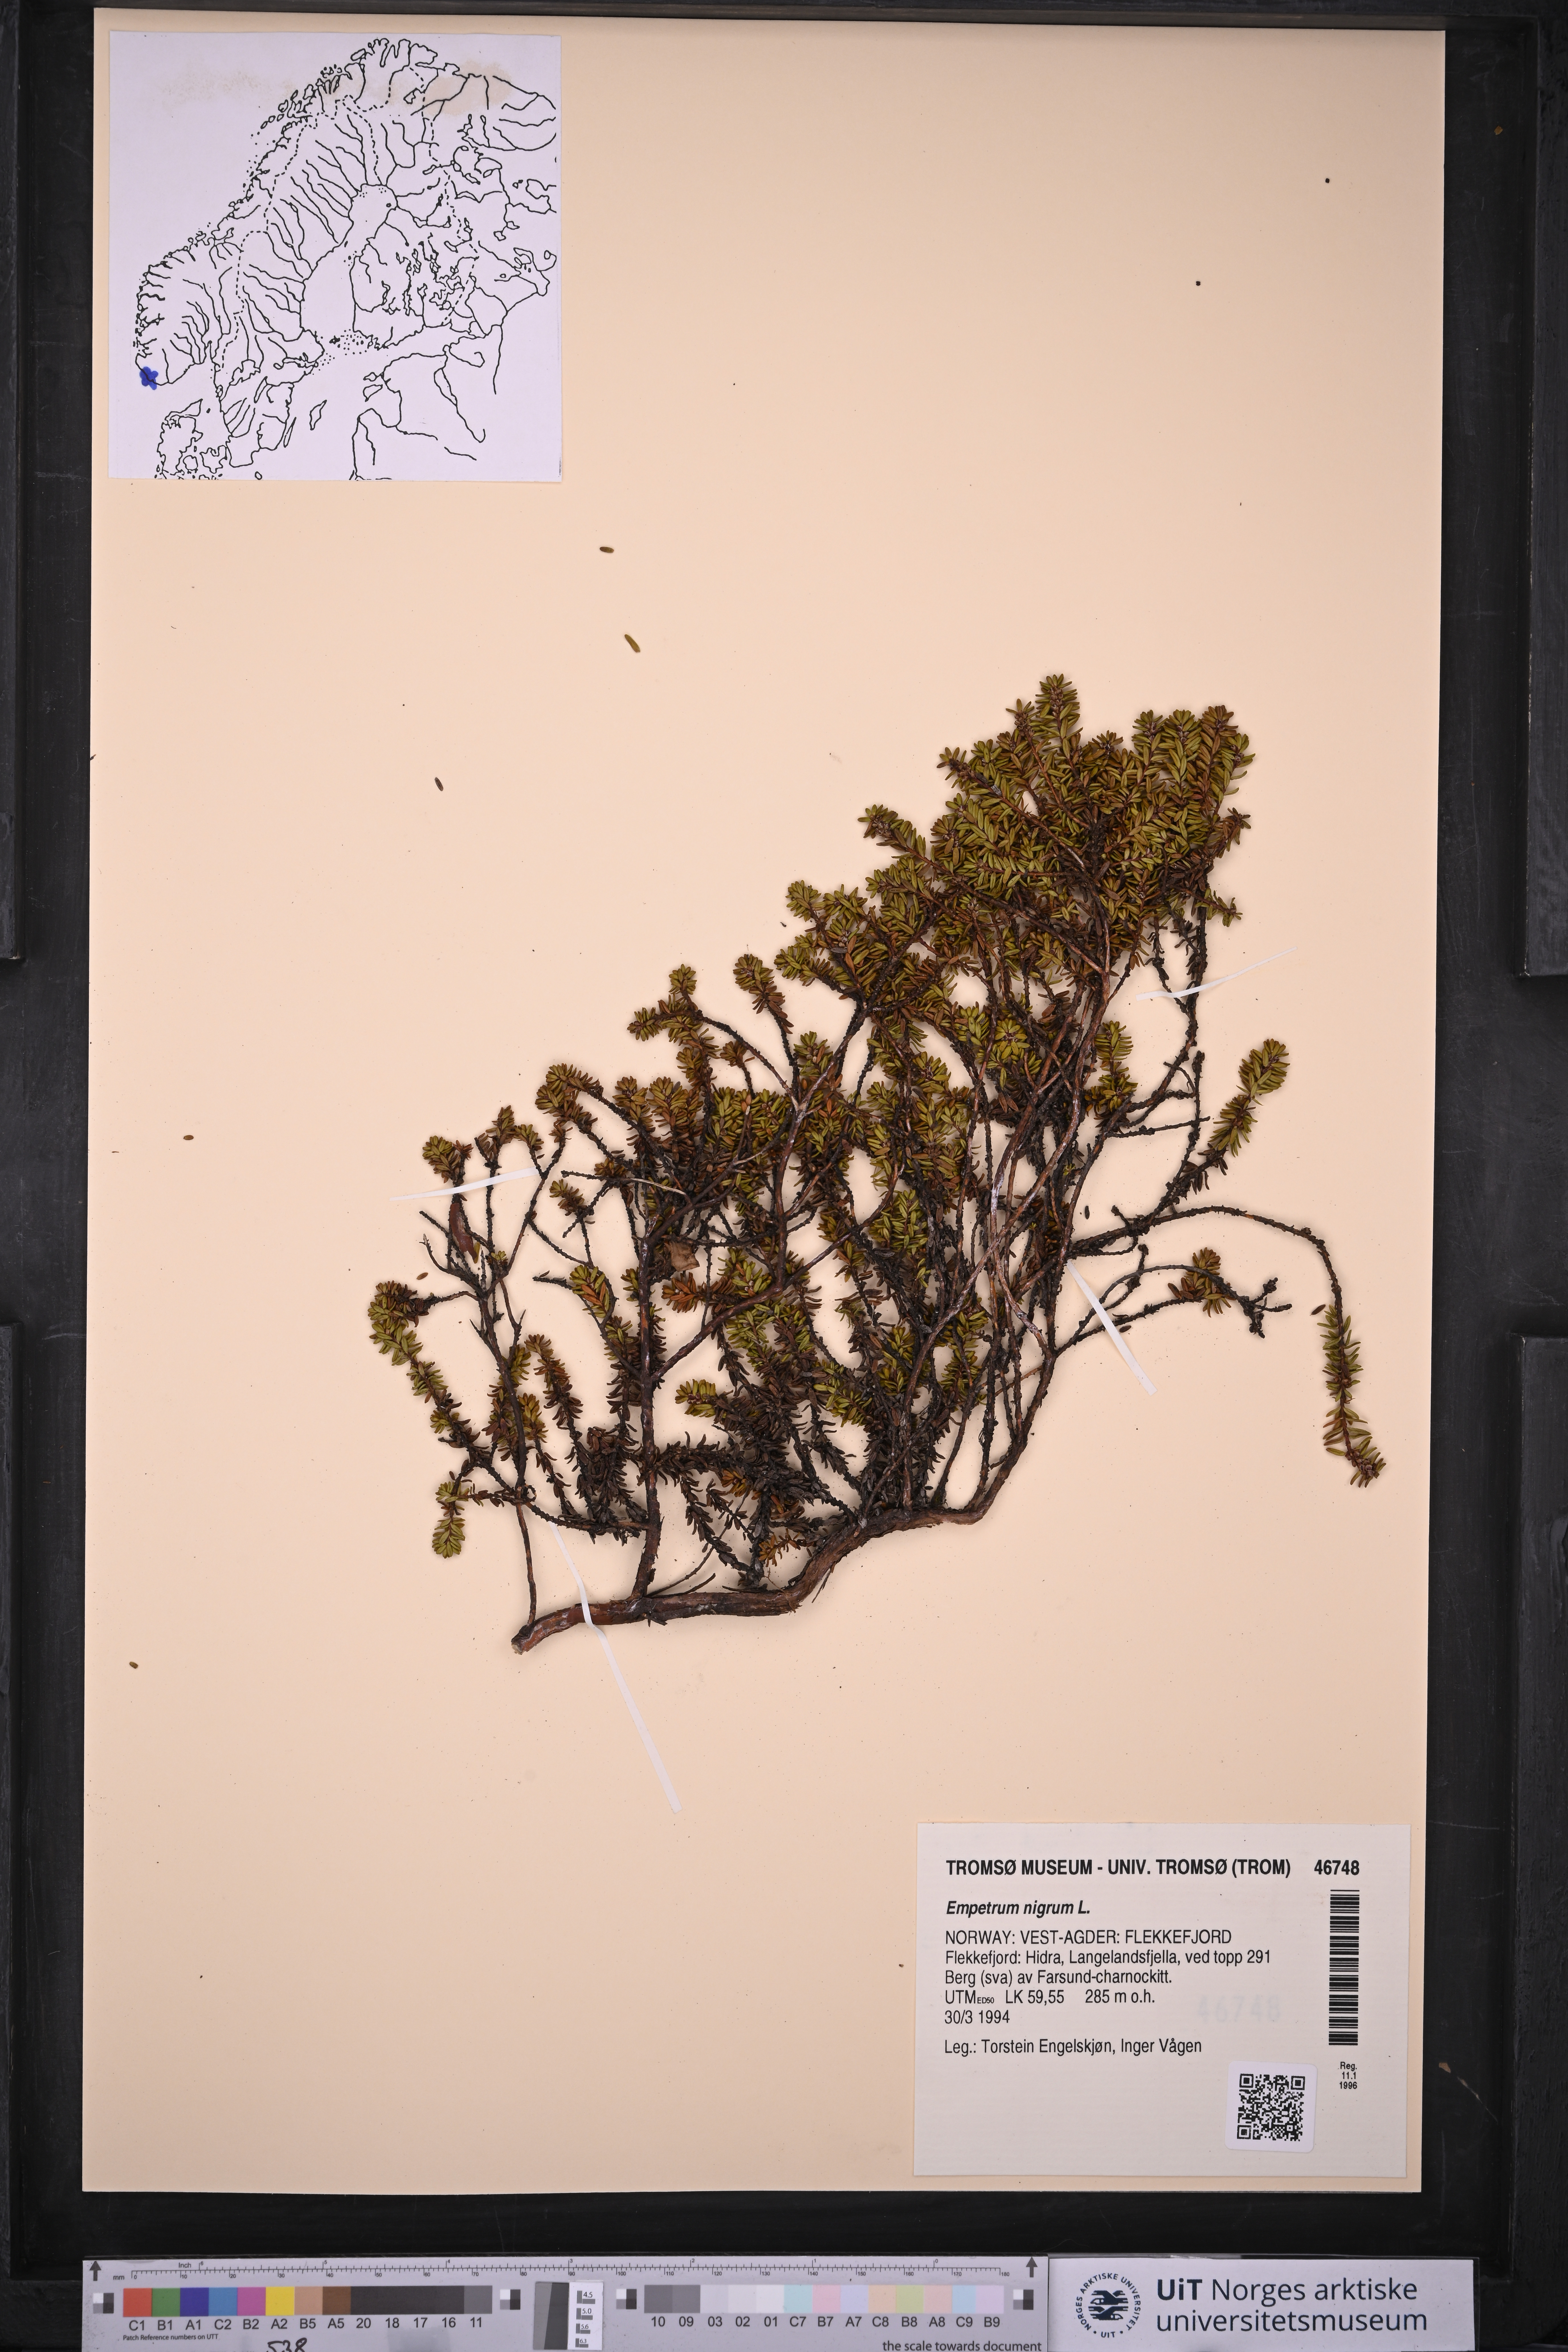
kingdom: Plantae
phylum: Tracheophyta
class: Magnoliopsida
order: Ericales
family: Ericaceae
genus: Empetrum
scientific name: Empetrum nigrum
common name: Black crowberry
